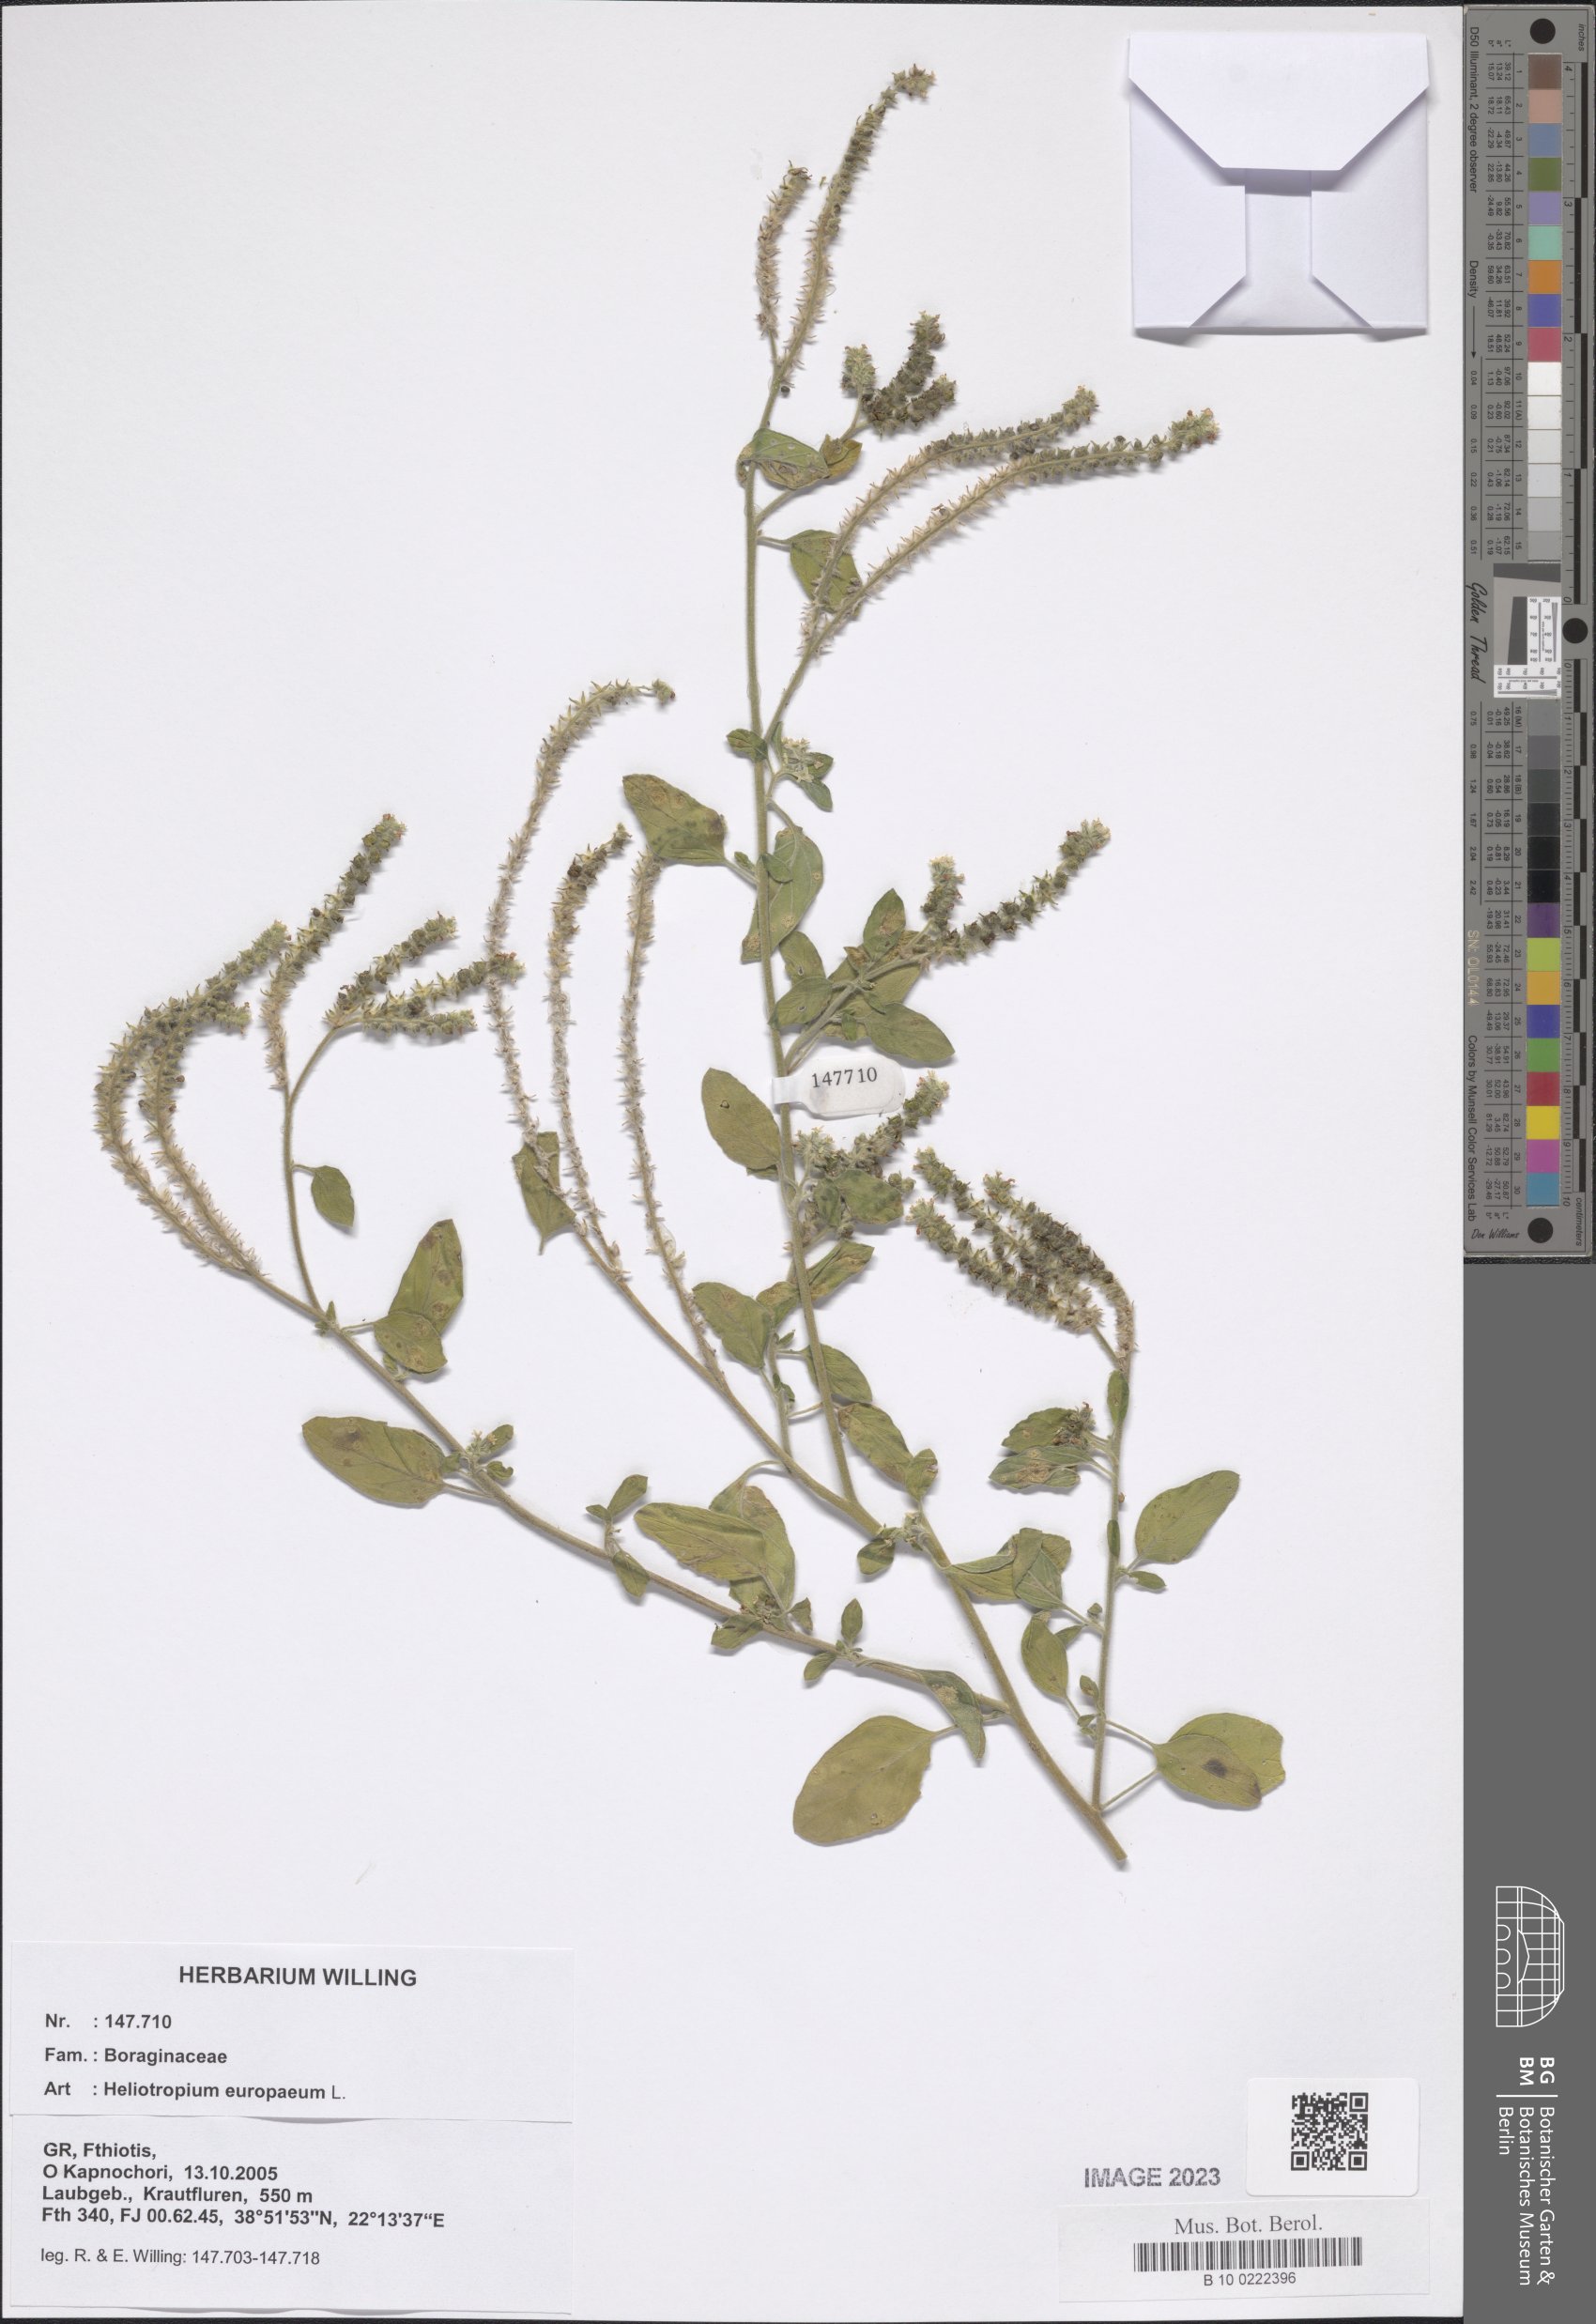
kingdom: Plantae
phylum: Tracheophyta
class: Magnoliopsida
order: Boraginales
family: Heliotropiaceae
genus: Heliotropium
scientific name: Heliotropium europaeum
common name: European heliotrope
